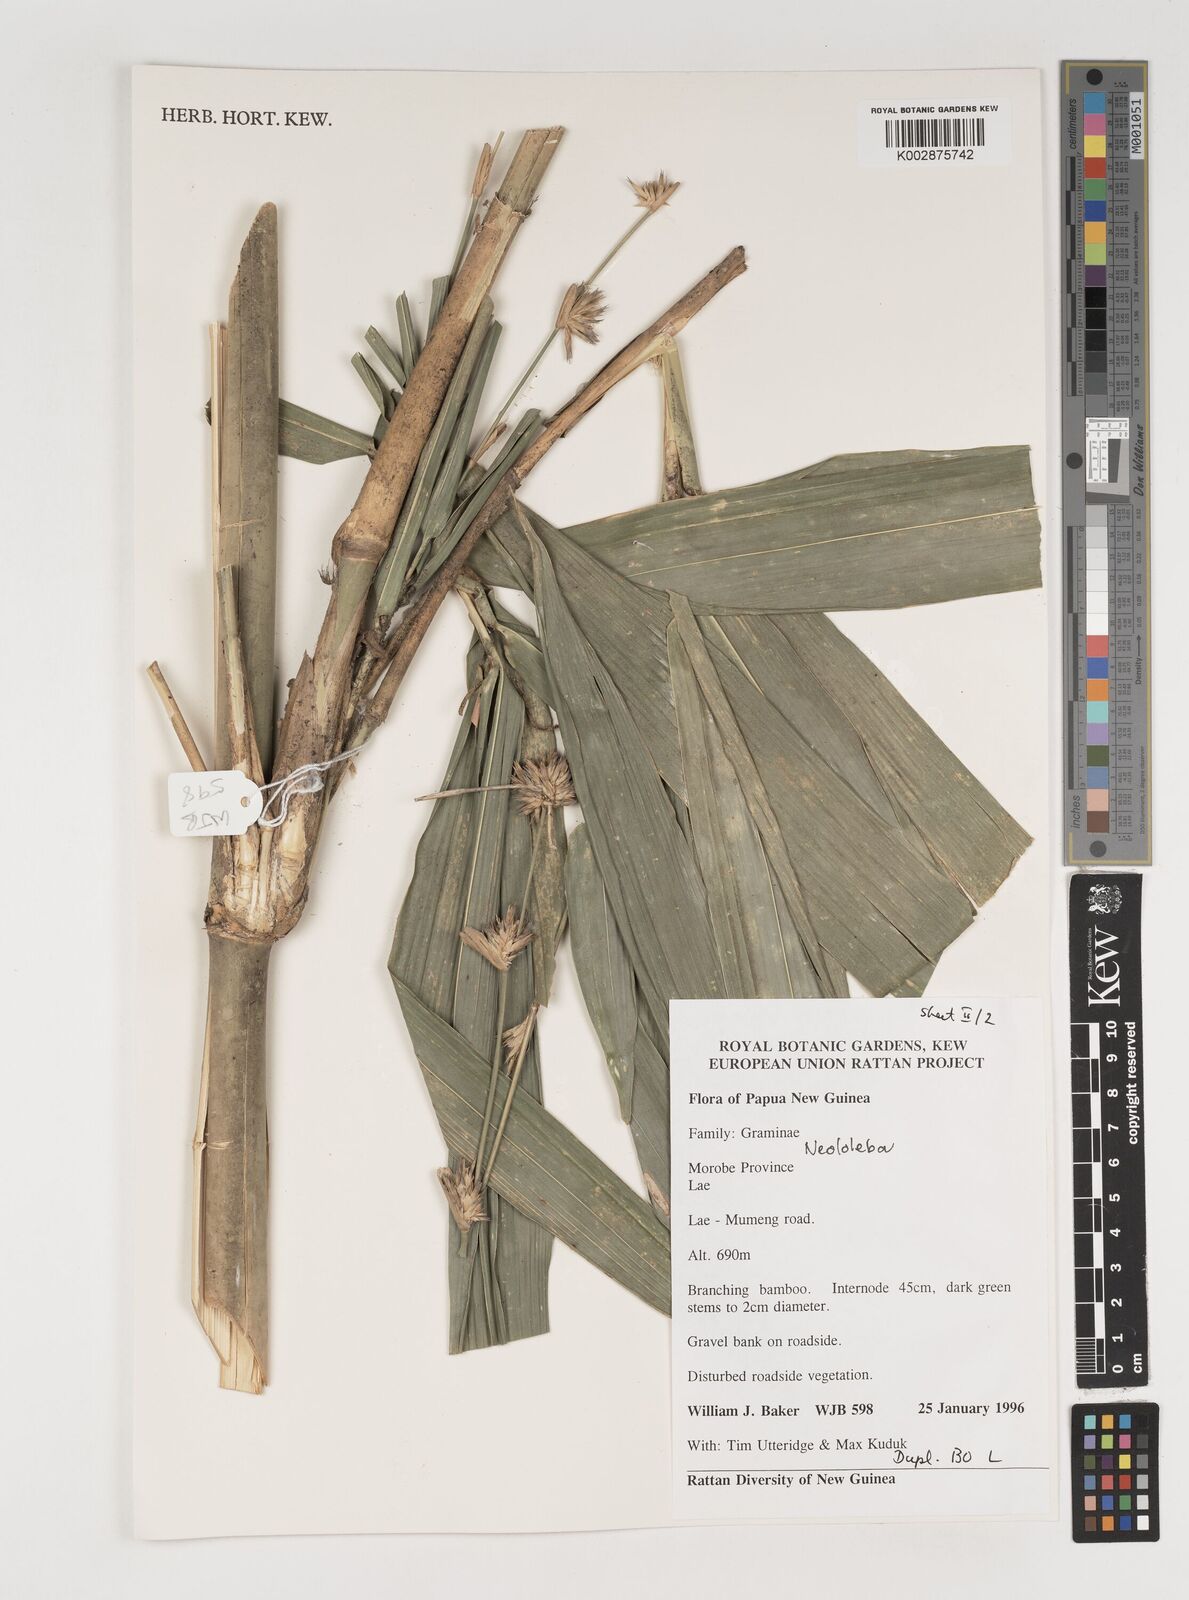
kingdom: Plantae
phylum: Tracheophyta
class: Liliopsida
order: Poales
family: Poaceae
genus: Neololeba
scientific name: Neololeba atra
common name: Cape bamboo
